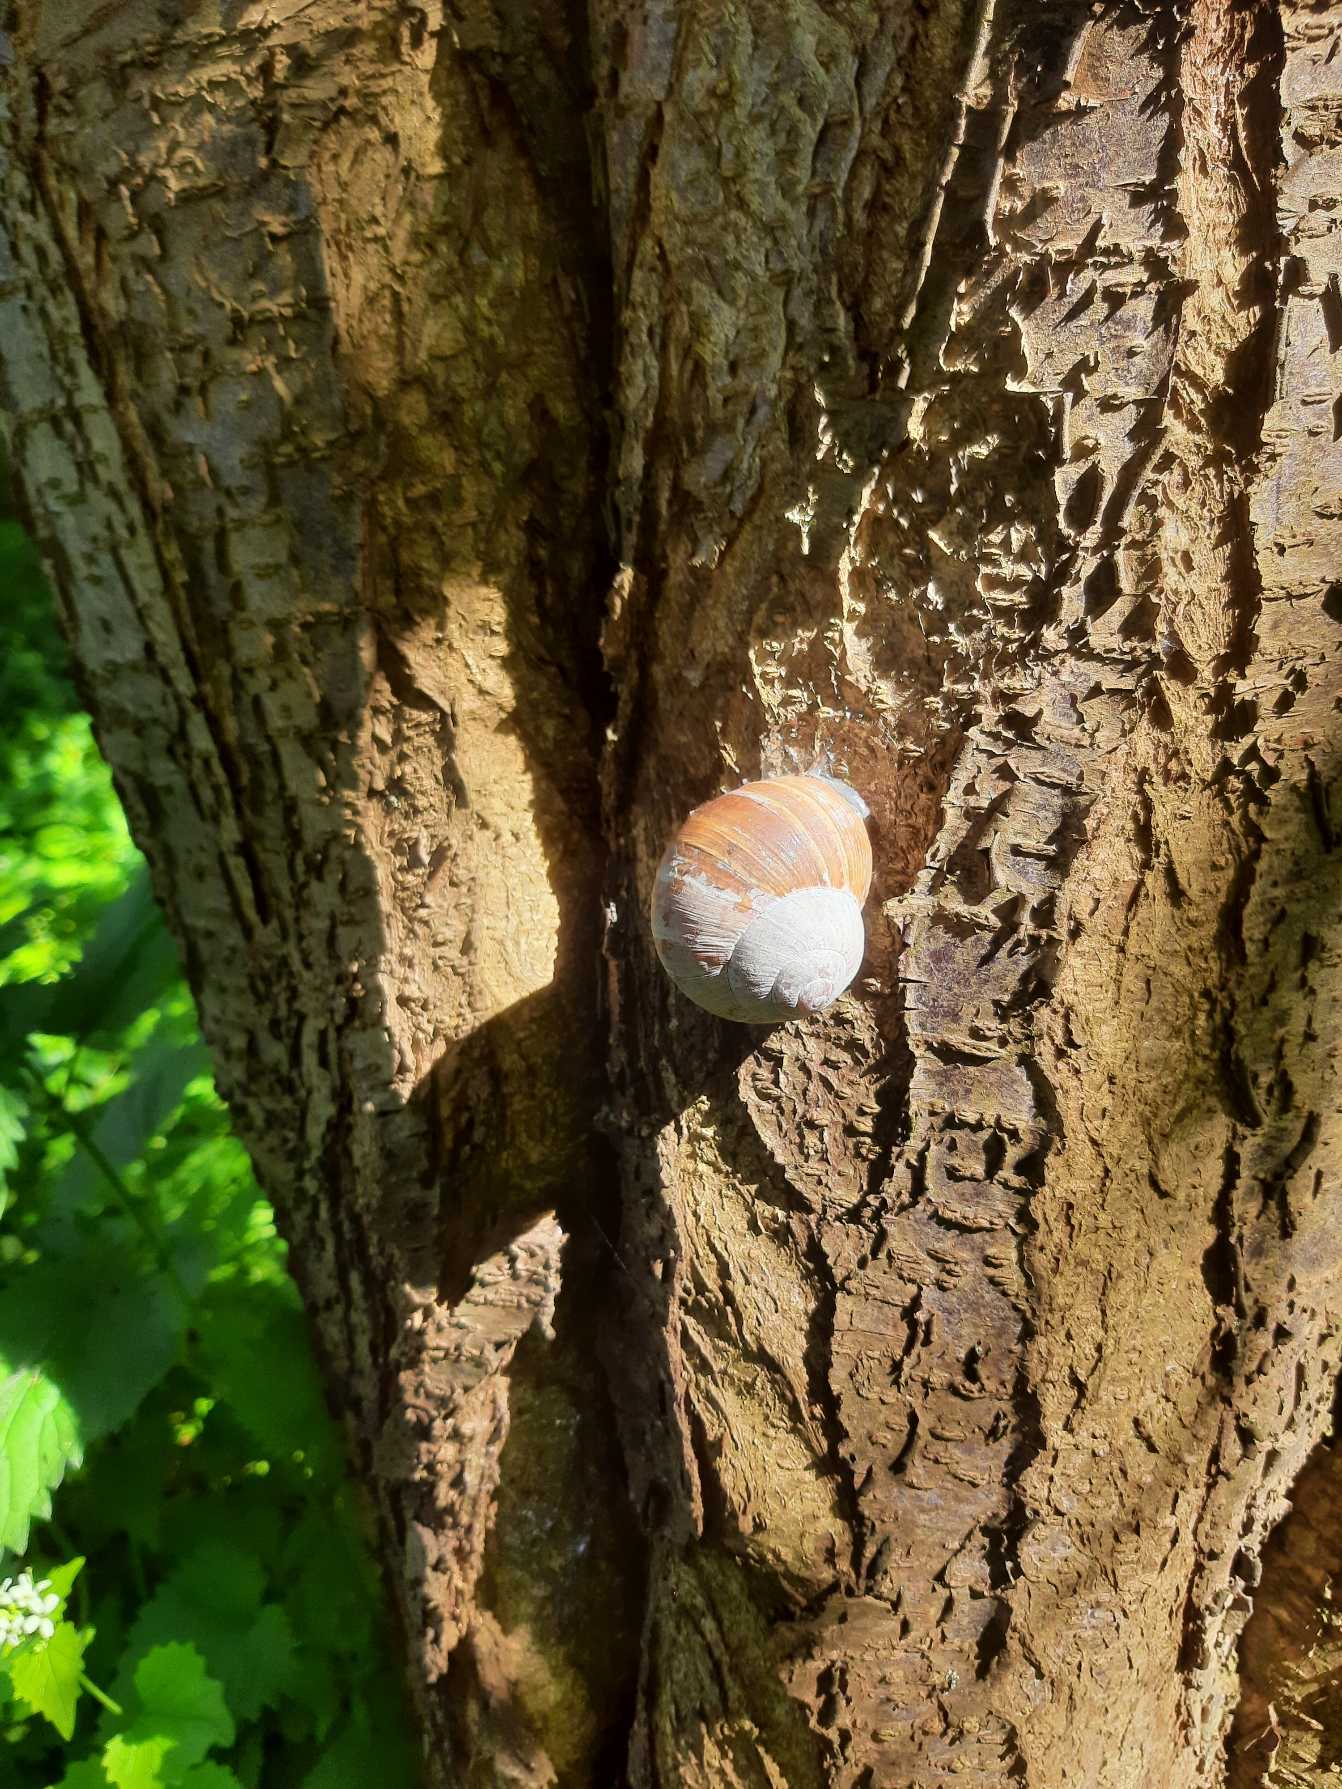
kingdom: Animalia
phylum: Mollusca
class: Gastropoda
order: Stylommatophora
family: Helicidae
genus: Helix
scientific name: Helix pomatia
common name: Vinbjergsnegl
